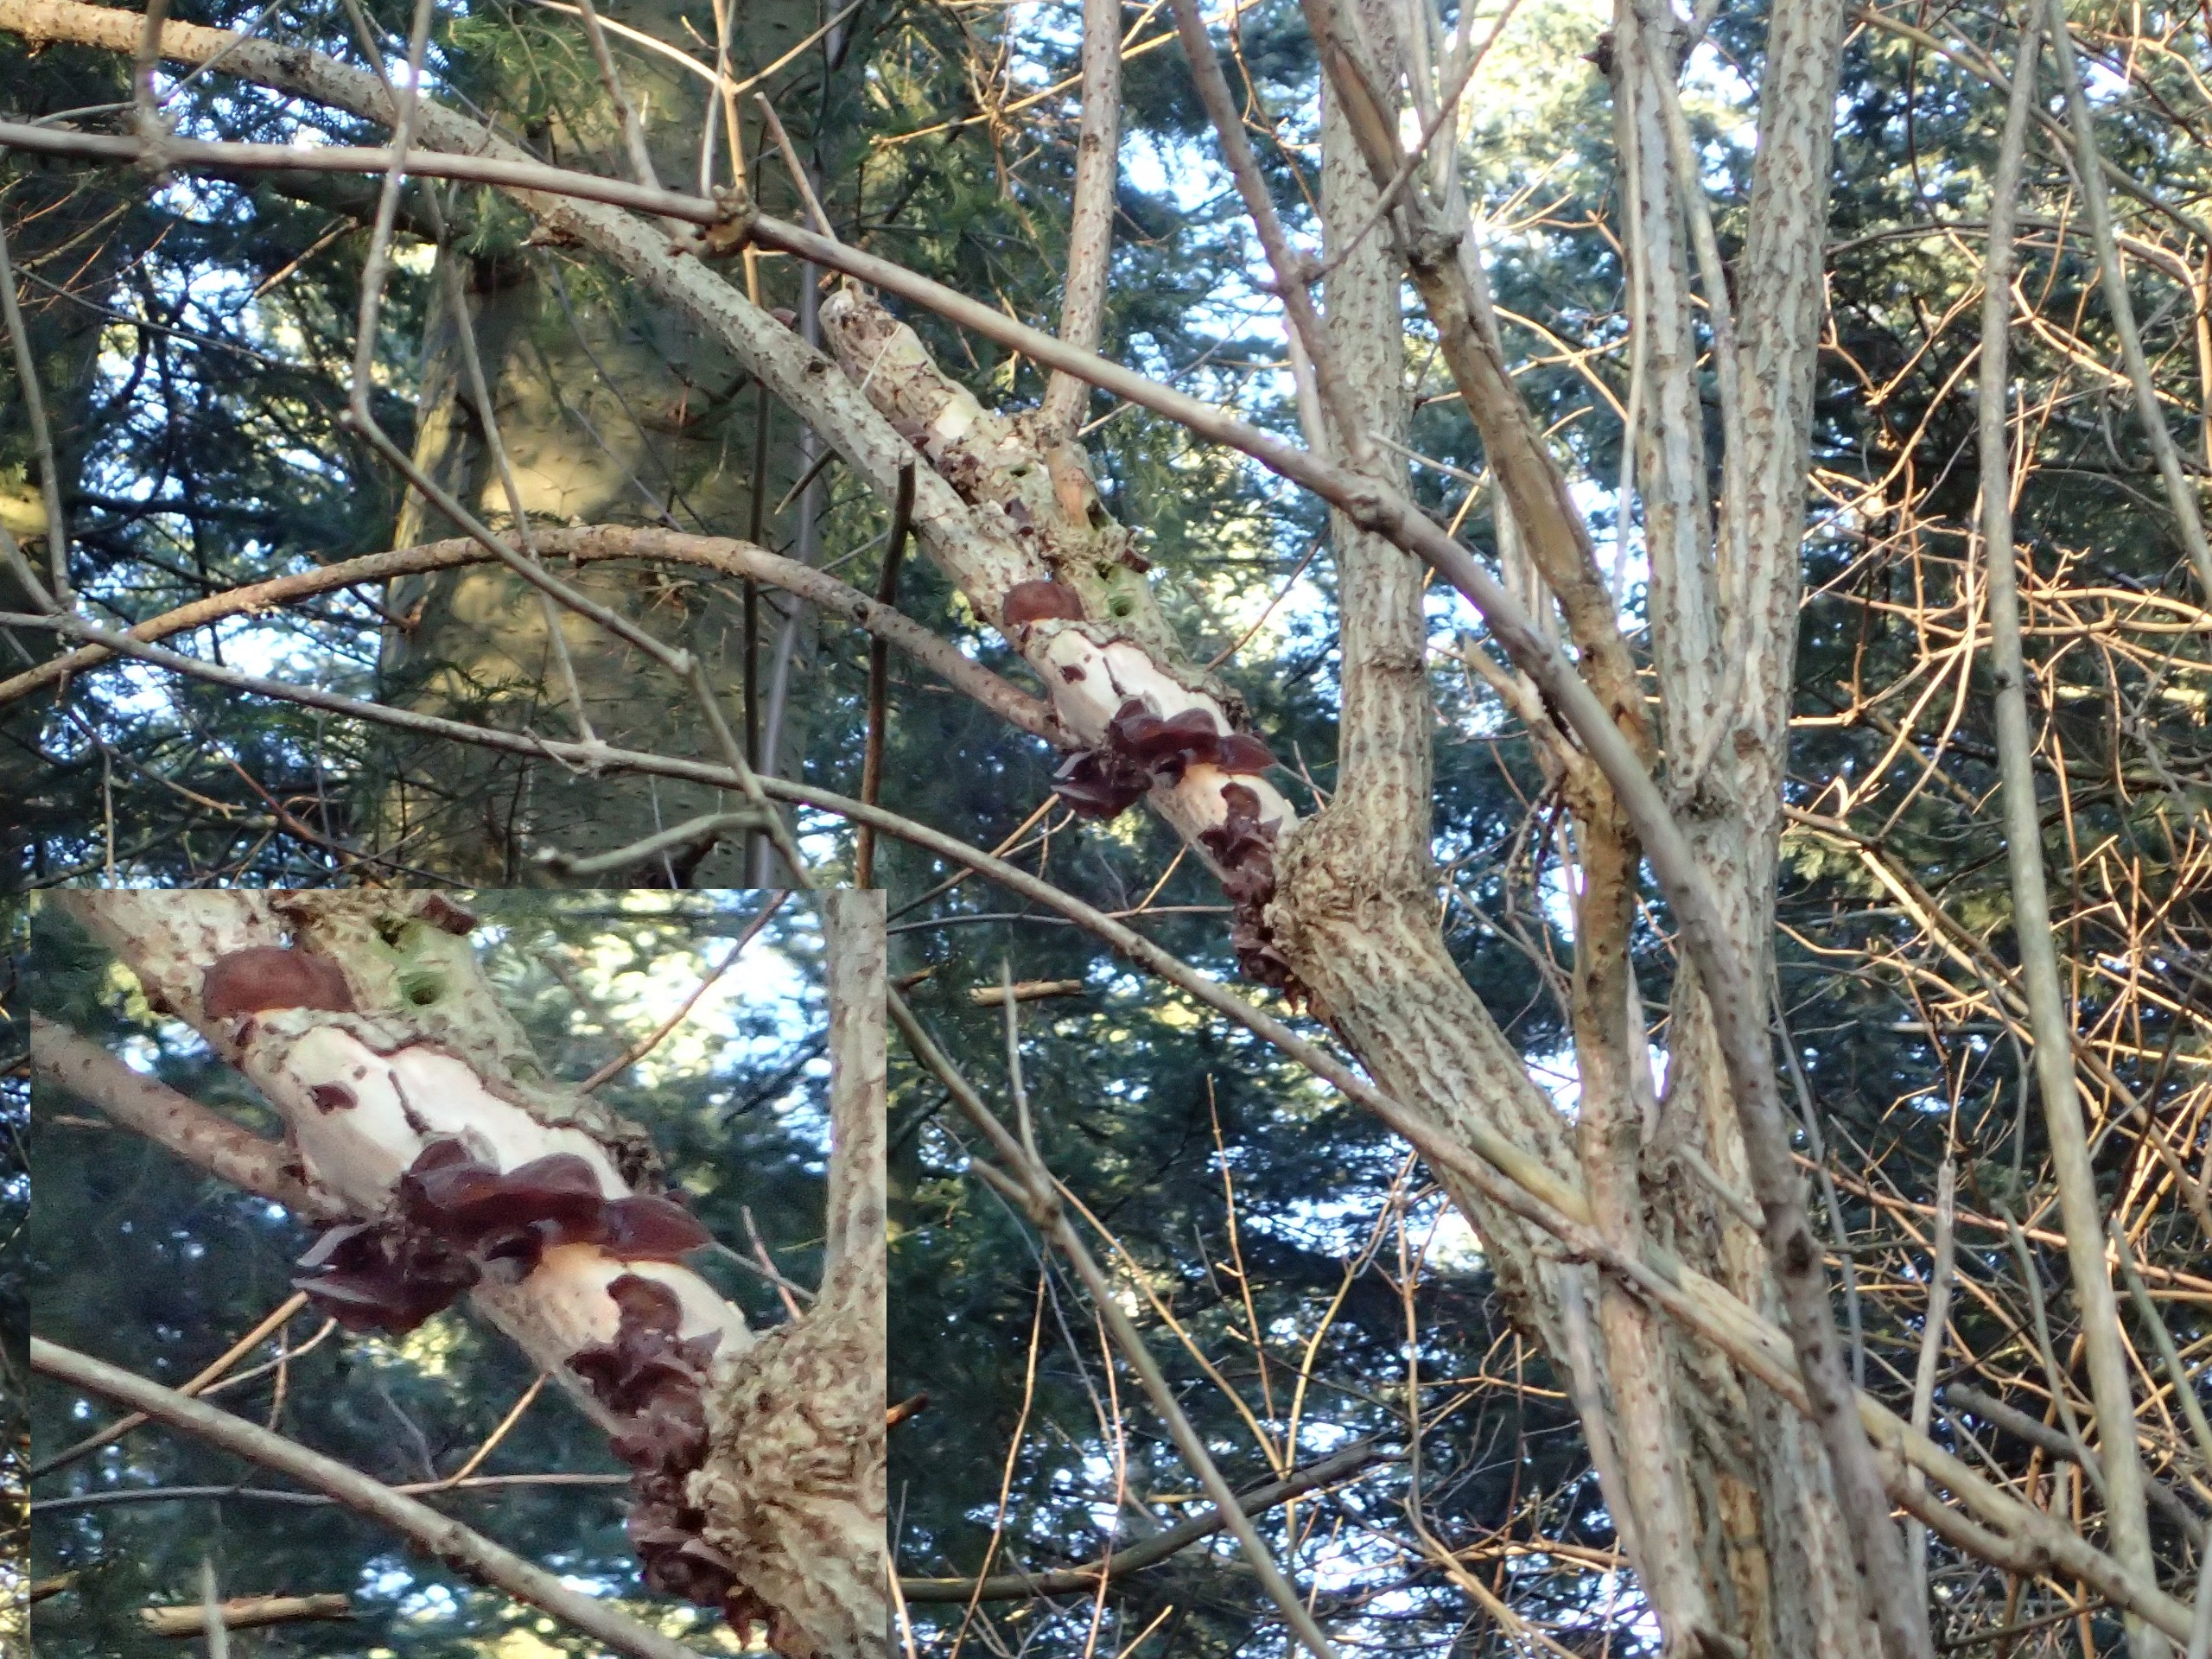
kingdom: Fungi
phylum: Basidiomycota
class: Agaricomycetes
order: Auriculariales
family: Auriculariaceae
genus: Auricularia
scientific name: Auricularia auricula-judae
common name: Almindelig judasøre
